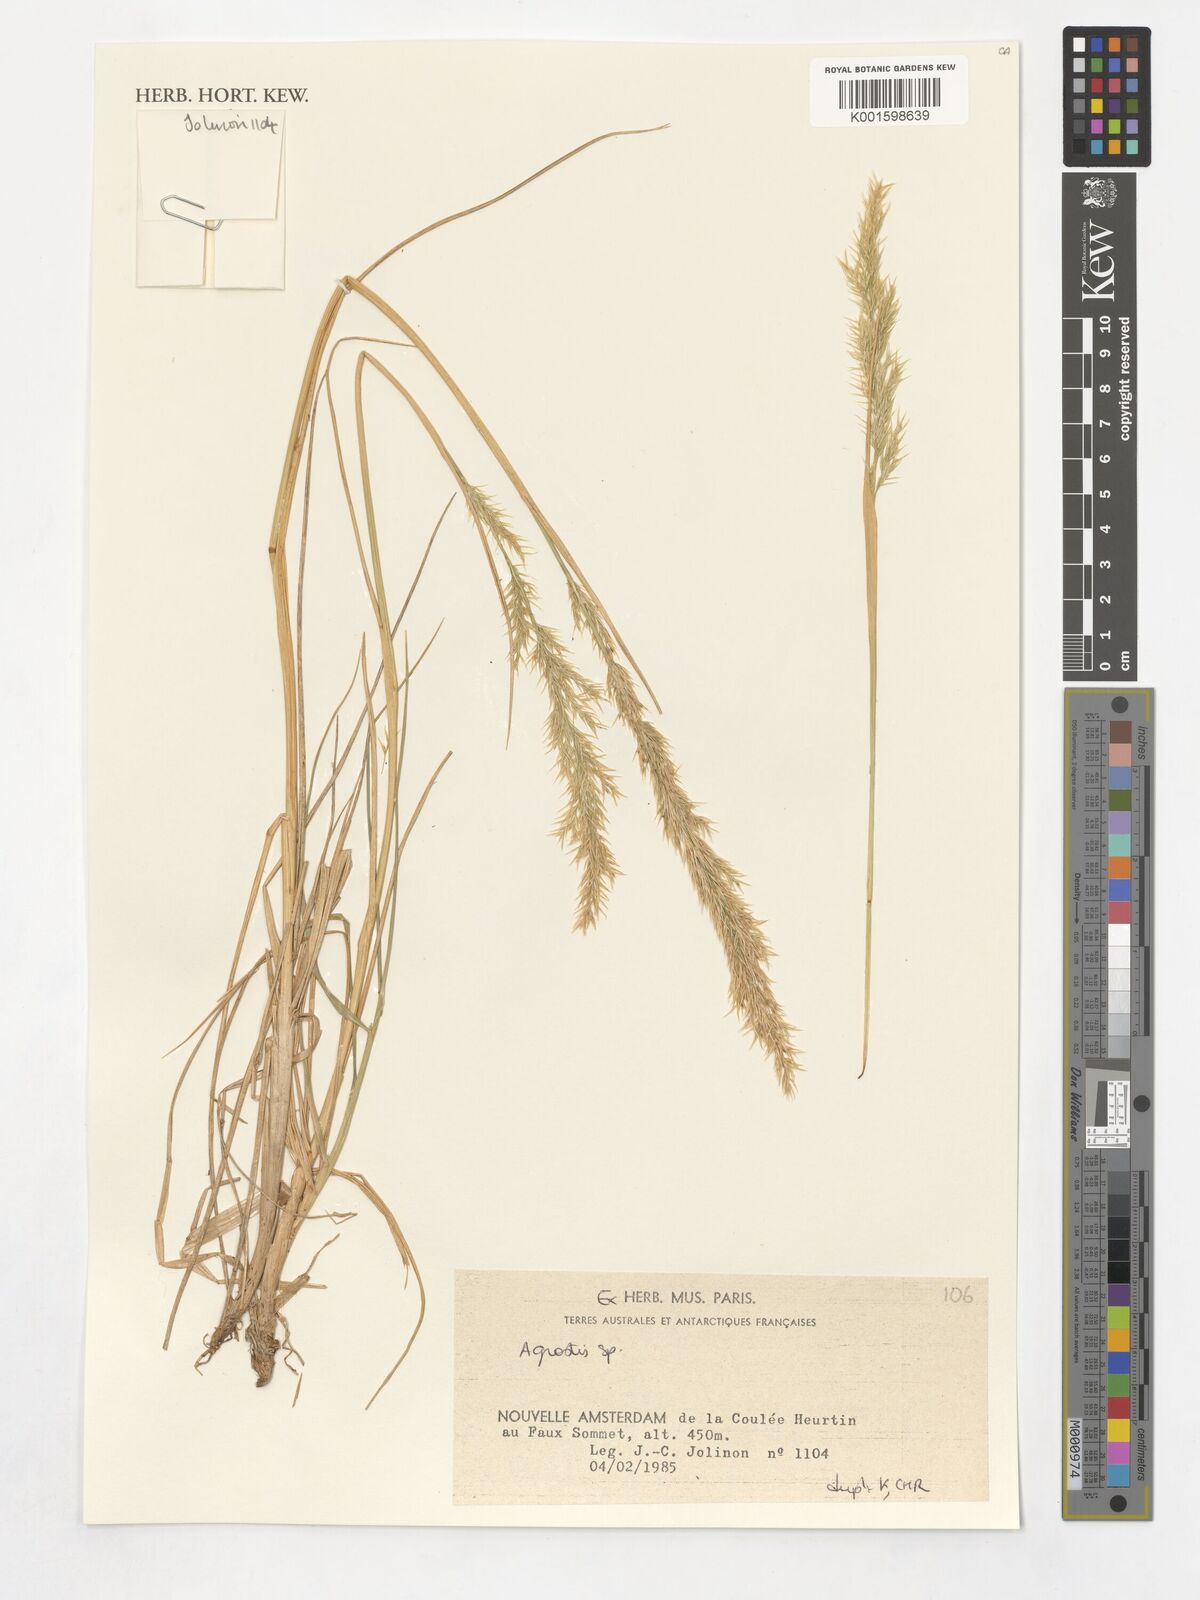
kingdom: Plantae
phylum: Tracheophyta
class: Liliopsida
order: Poales
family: Poaceae
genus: Agrostis
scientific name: Agrostis
